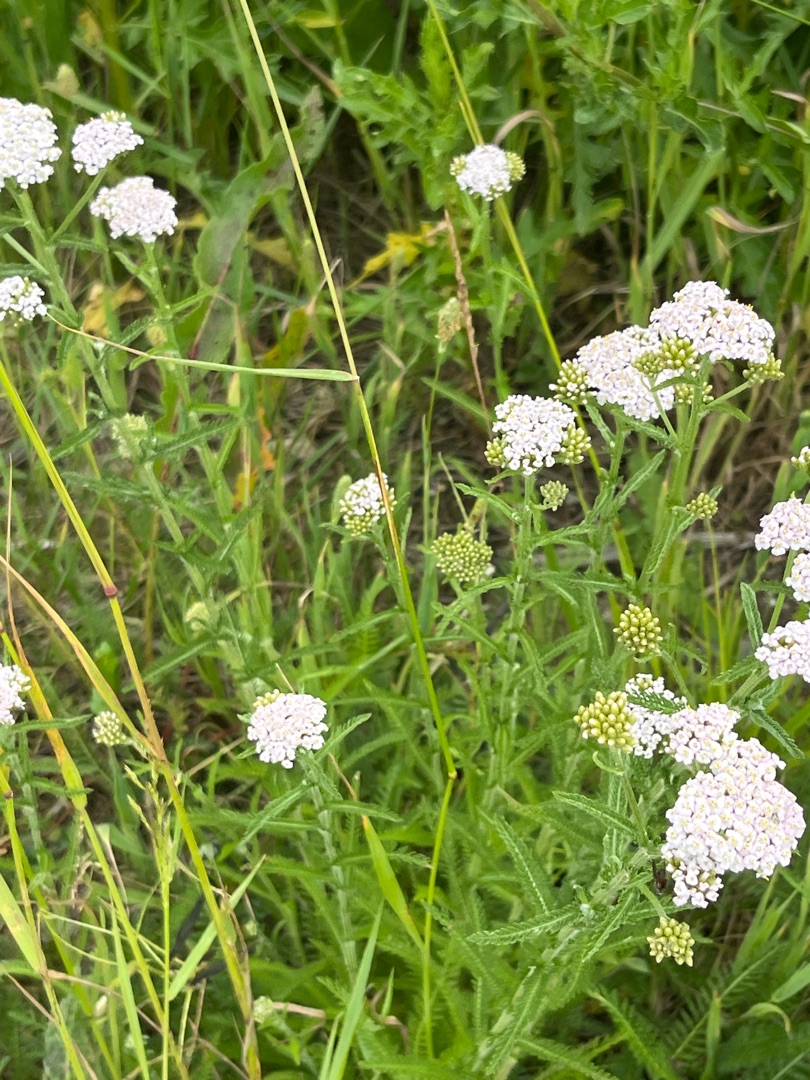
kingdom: Plantae
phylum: Tracheophyta
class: Magnoliopsida
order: Asterales
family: Asteraceae
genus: Achillea
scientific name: Achillea millefolium
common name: Almindelig røllike
